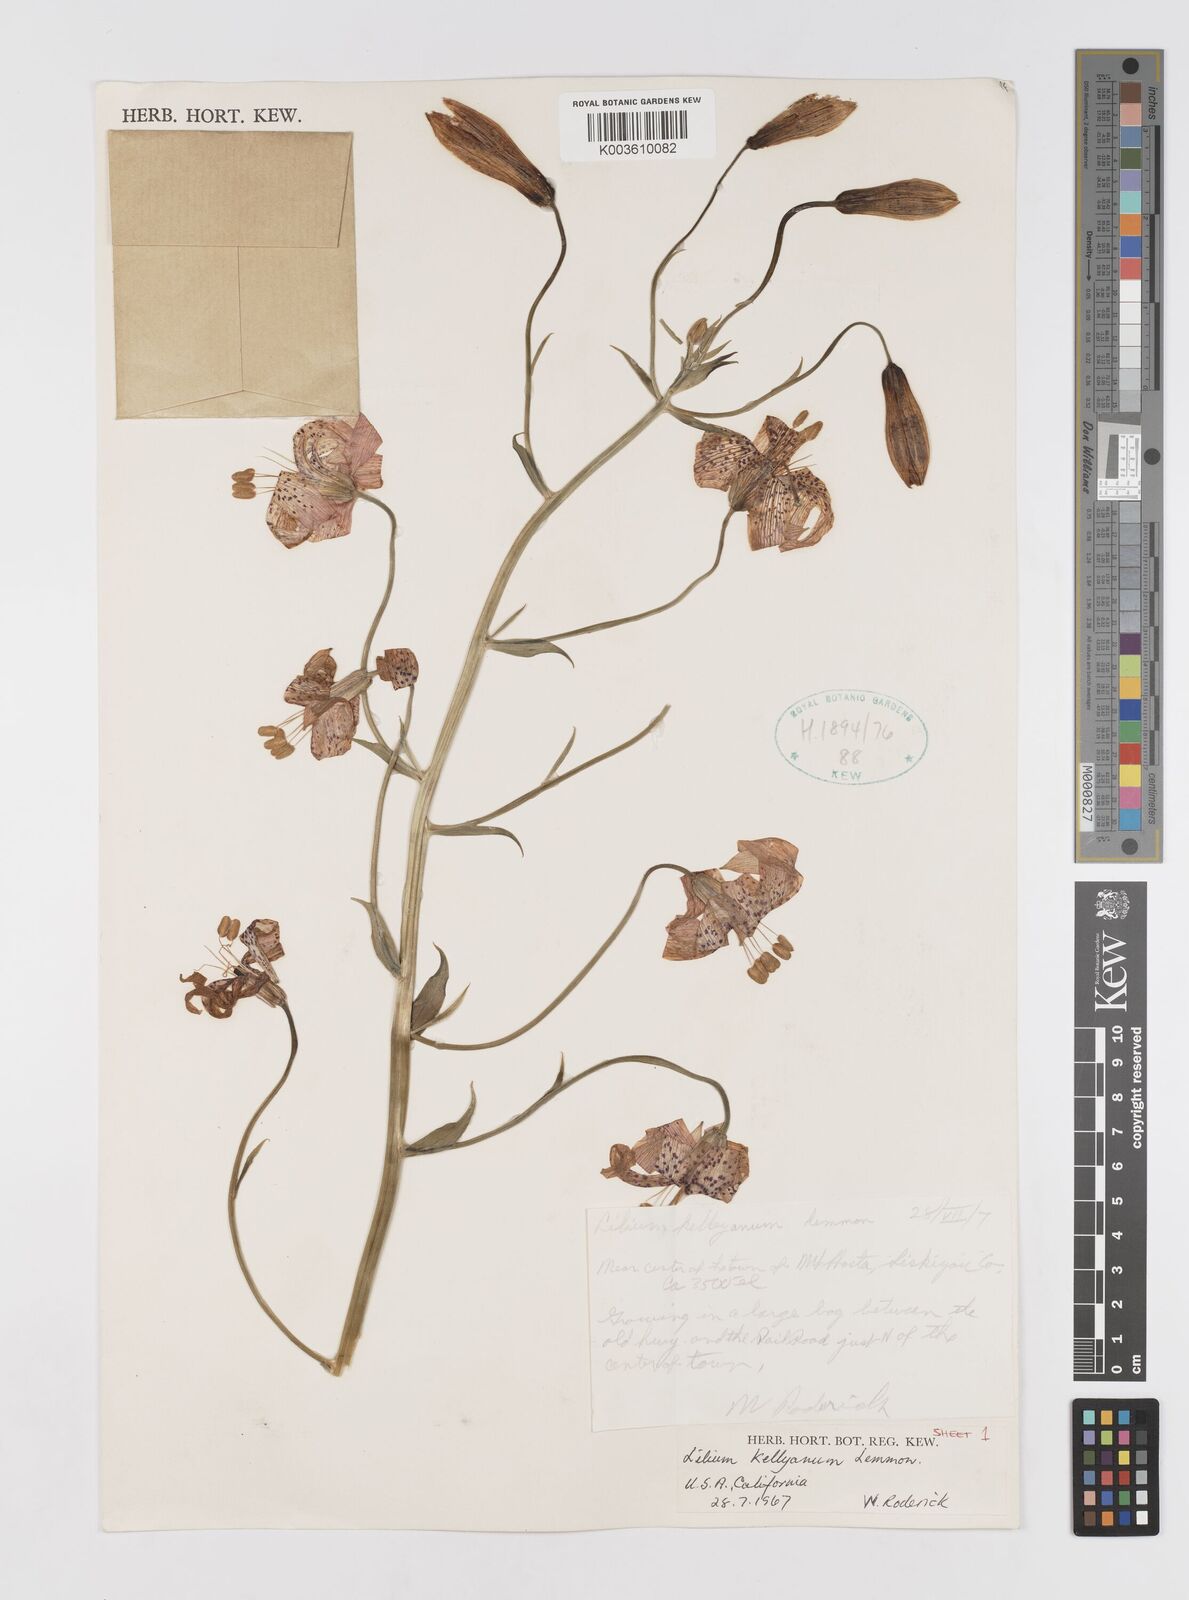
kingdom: Plantae
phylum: Tracheophyta
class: Liliopsida
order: Liliales
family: Liliaceae
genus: Lilium
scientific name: Lilium kelleyanum
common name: Kelley's lily
